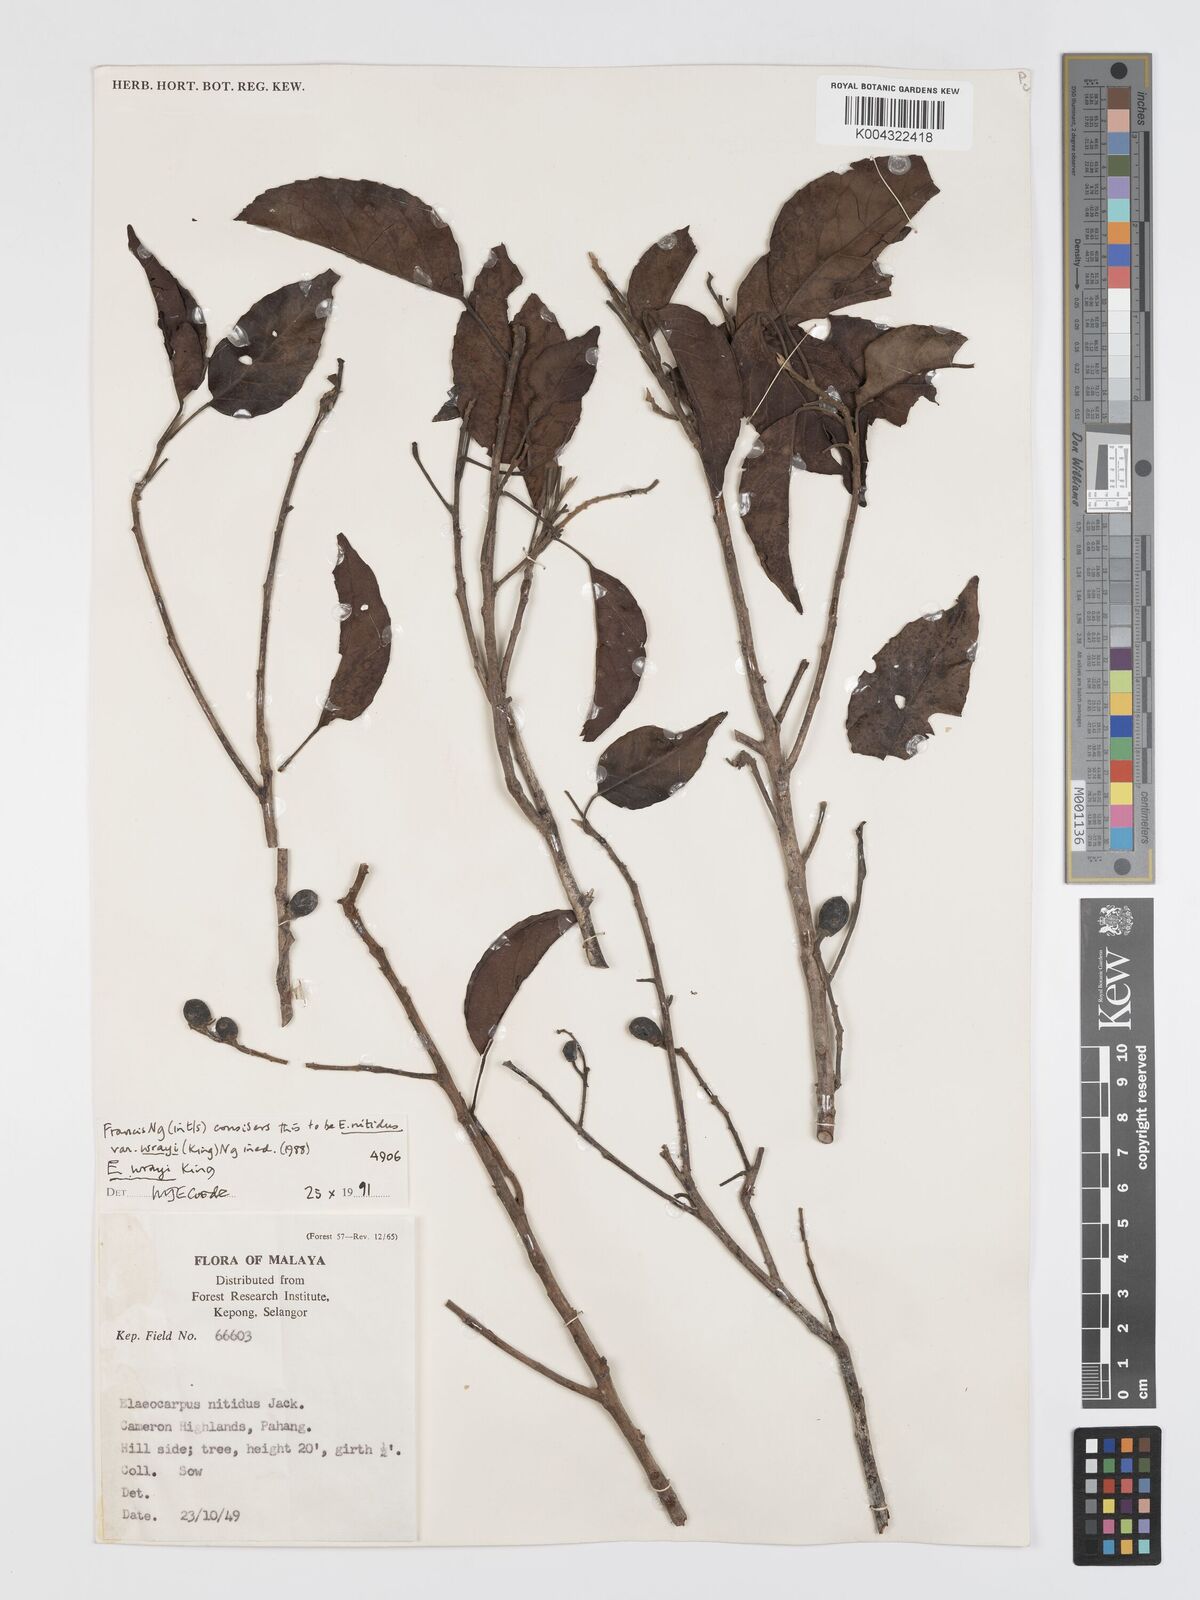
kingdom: Plantae
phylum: Tracheophyta
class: Magnoliopsida
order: Oxalidales
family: Elaeocarpaceae
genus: Elaeocarpus
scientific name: Elaeocarpus nitidus
